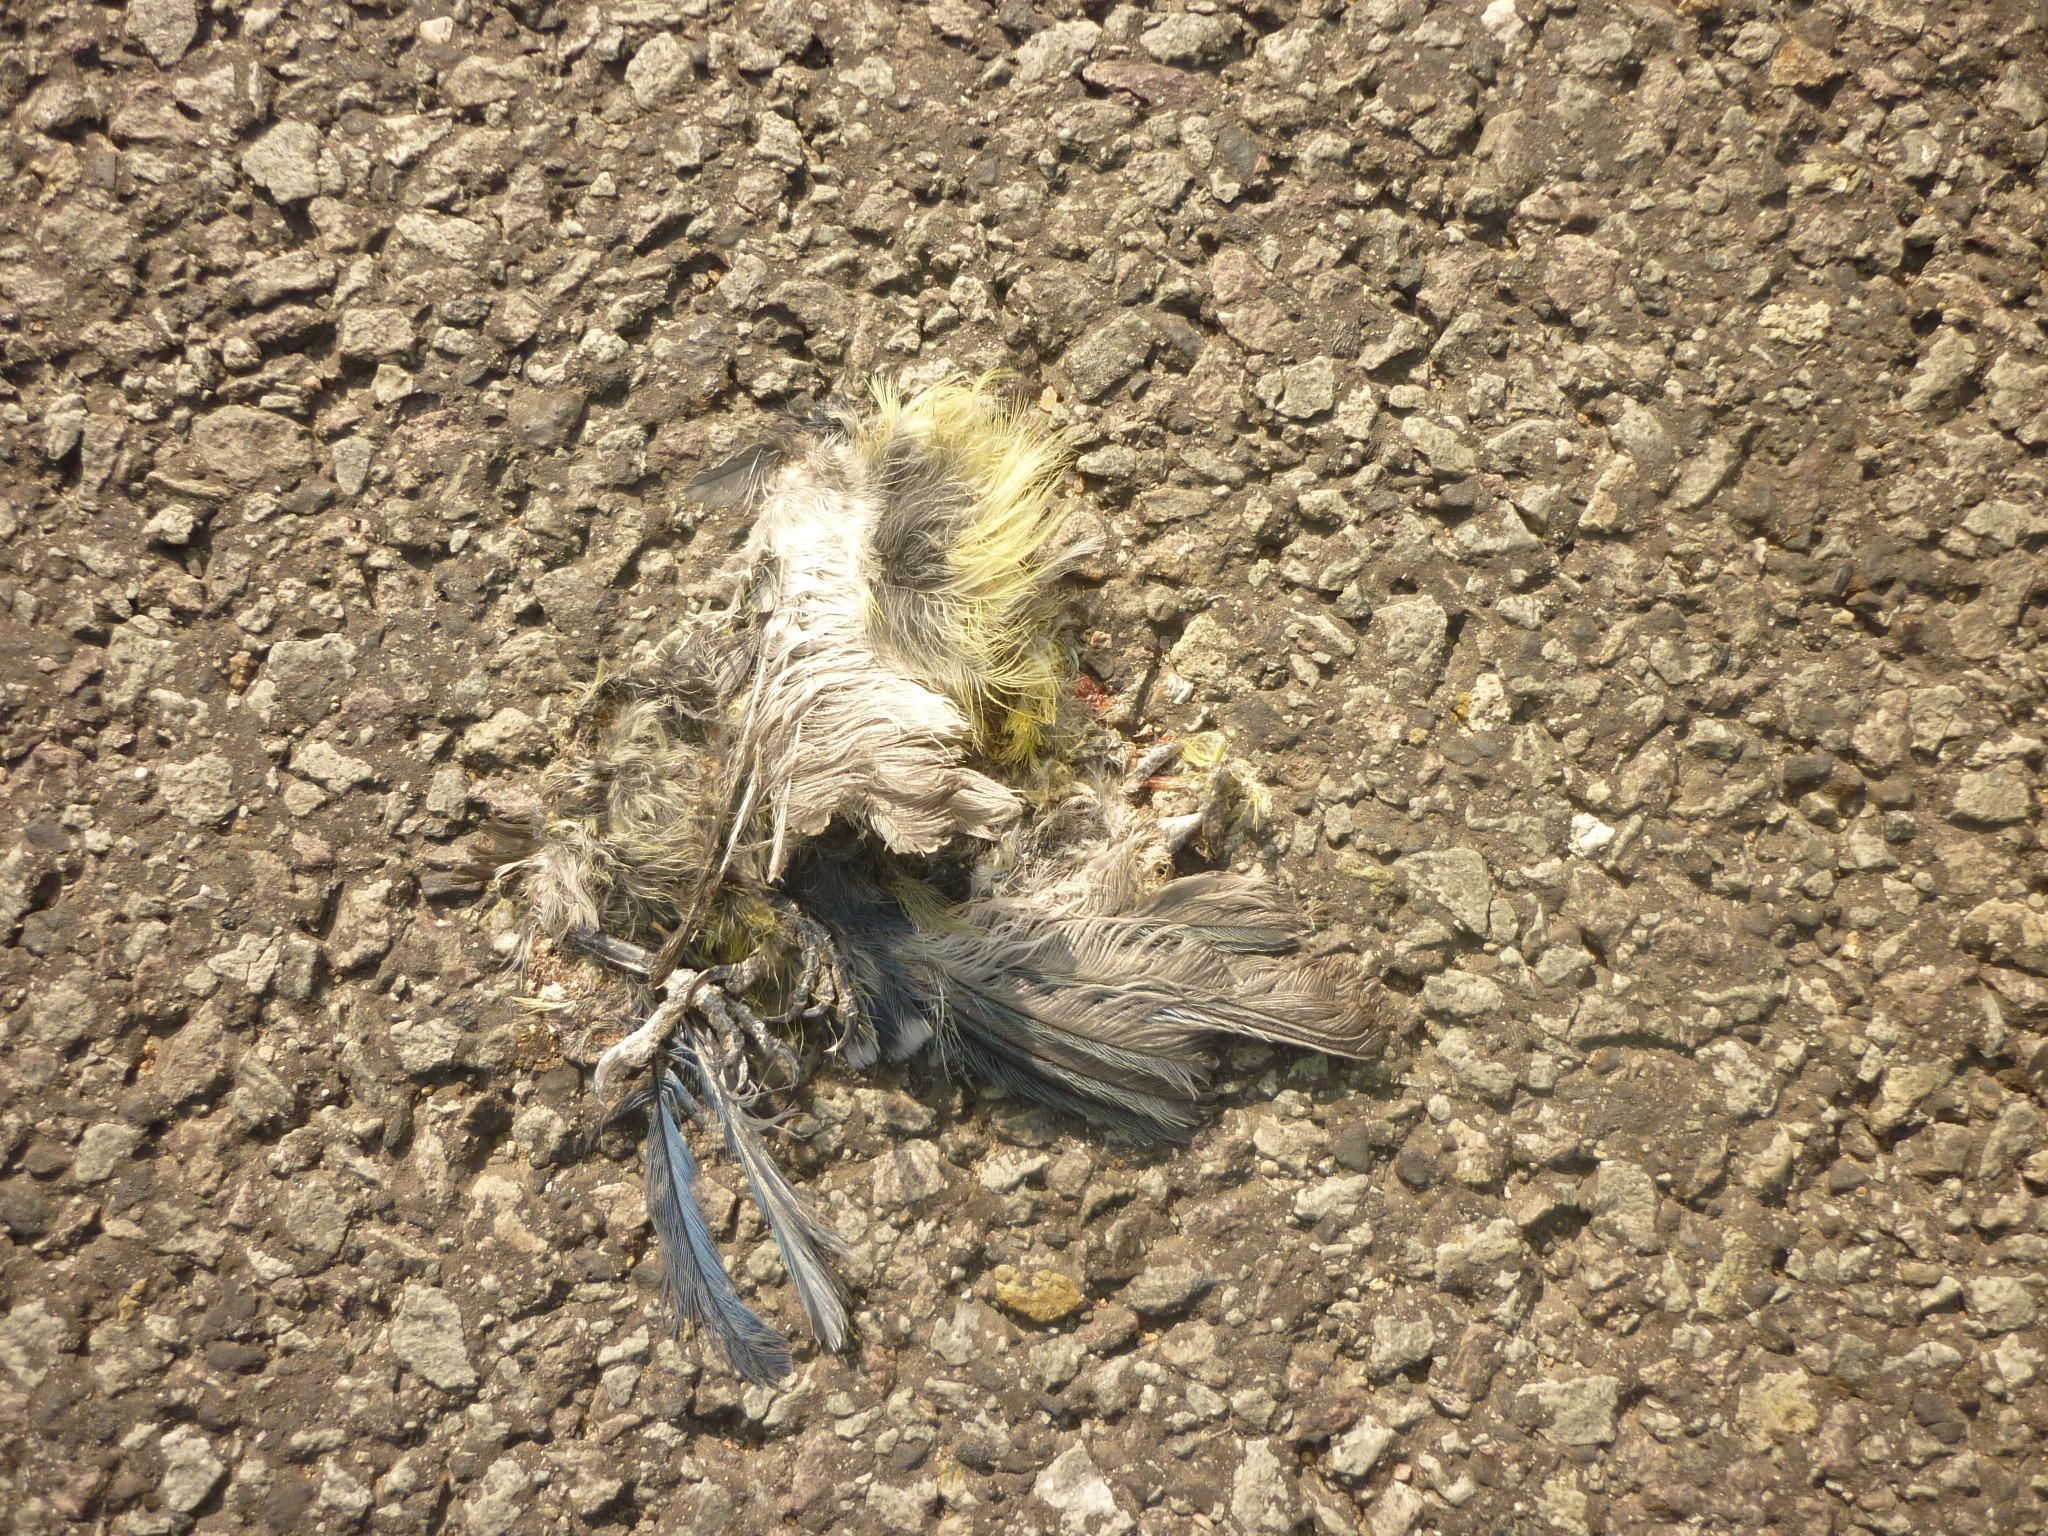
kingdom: Animalia
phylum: Chordata
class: Aves
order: Passeriformes
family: Paridae
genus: Cyanistes
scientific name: Cyanistes caeruleus
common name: Eurasian blue tit
